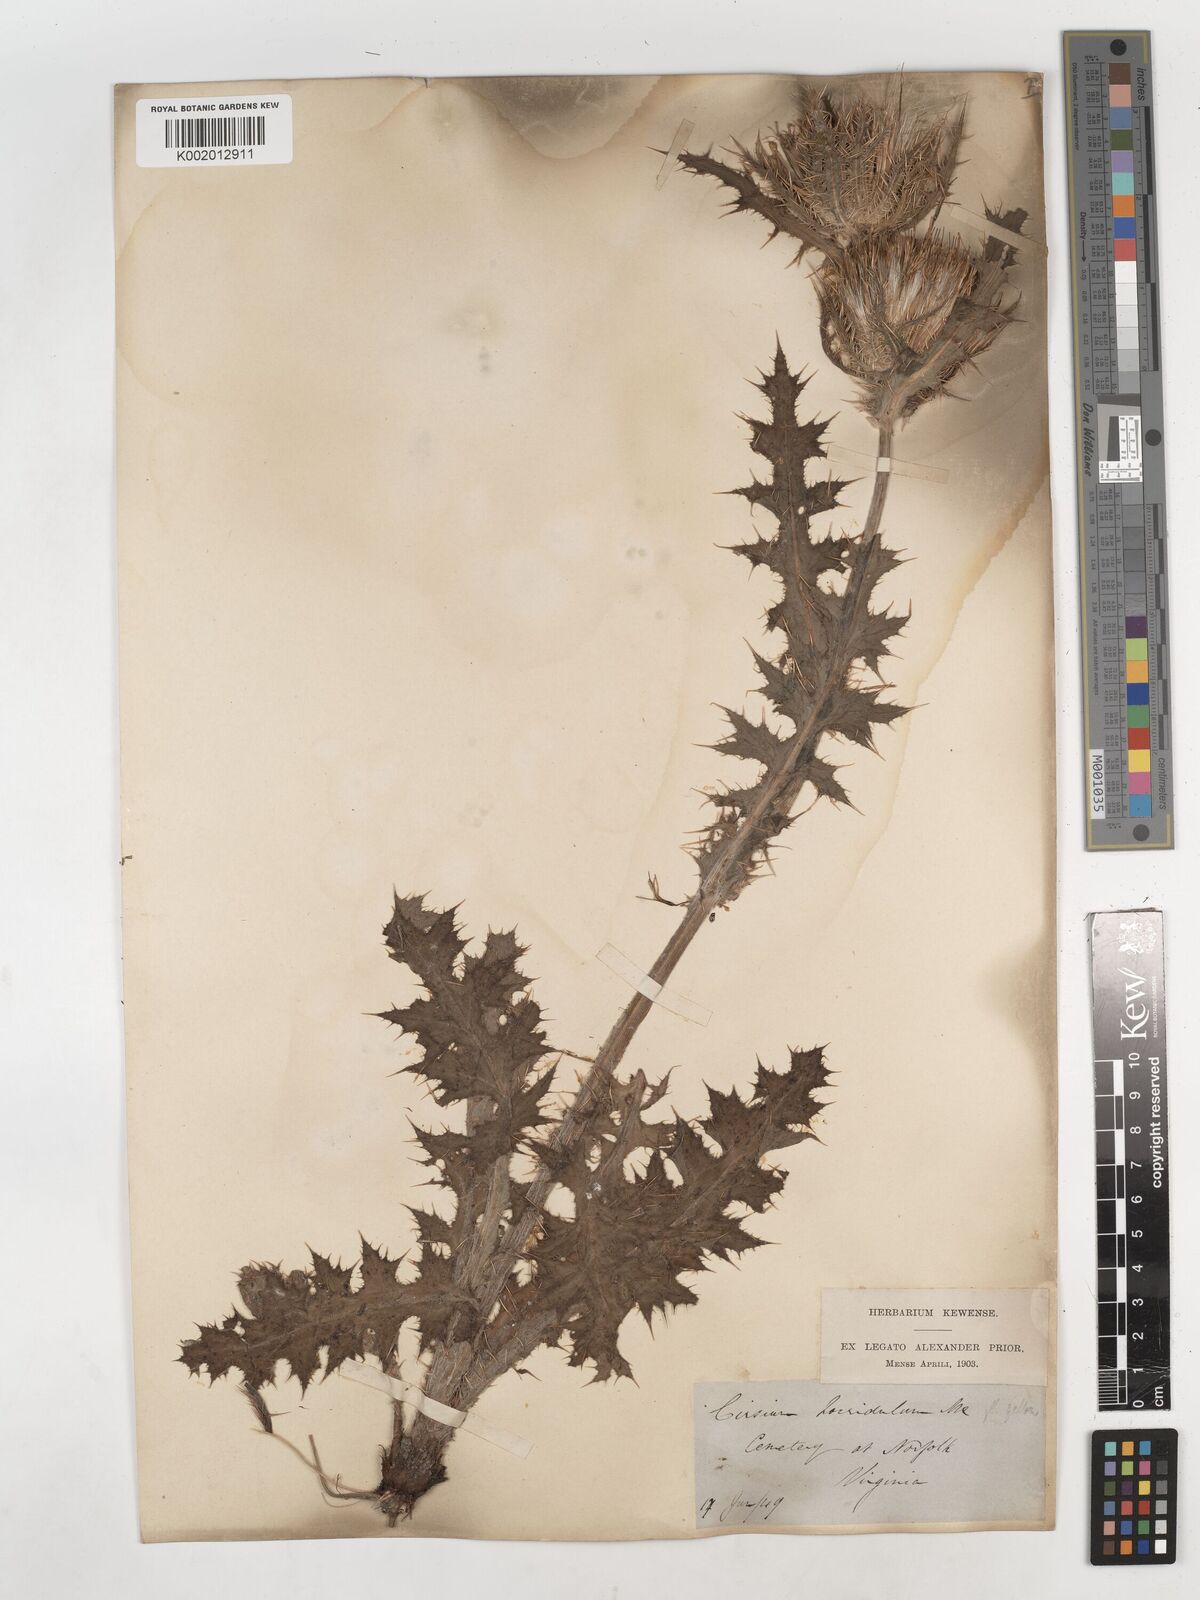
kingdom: Plantae
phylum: Tracheophyta
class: Magnoliopsida
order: Asterales
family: Asteraceae
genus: Cirsium
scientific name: Cirsium horridulum
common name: Bristly thistle
